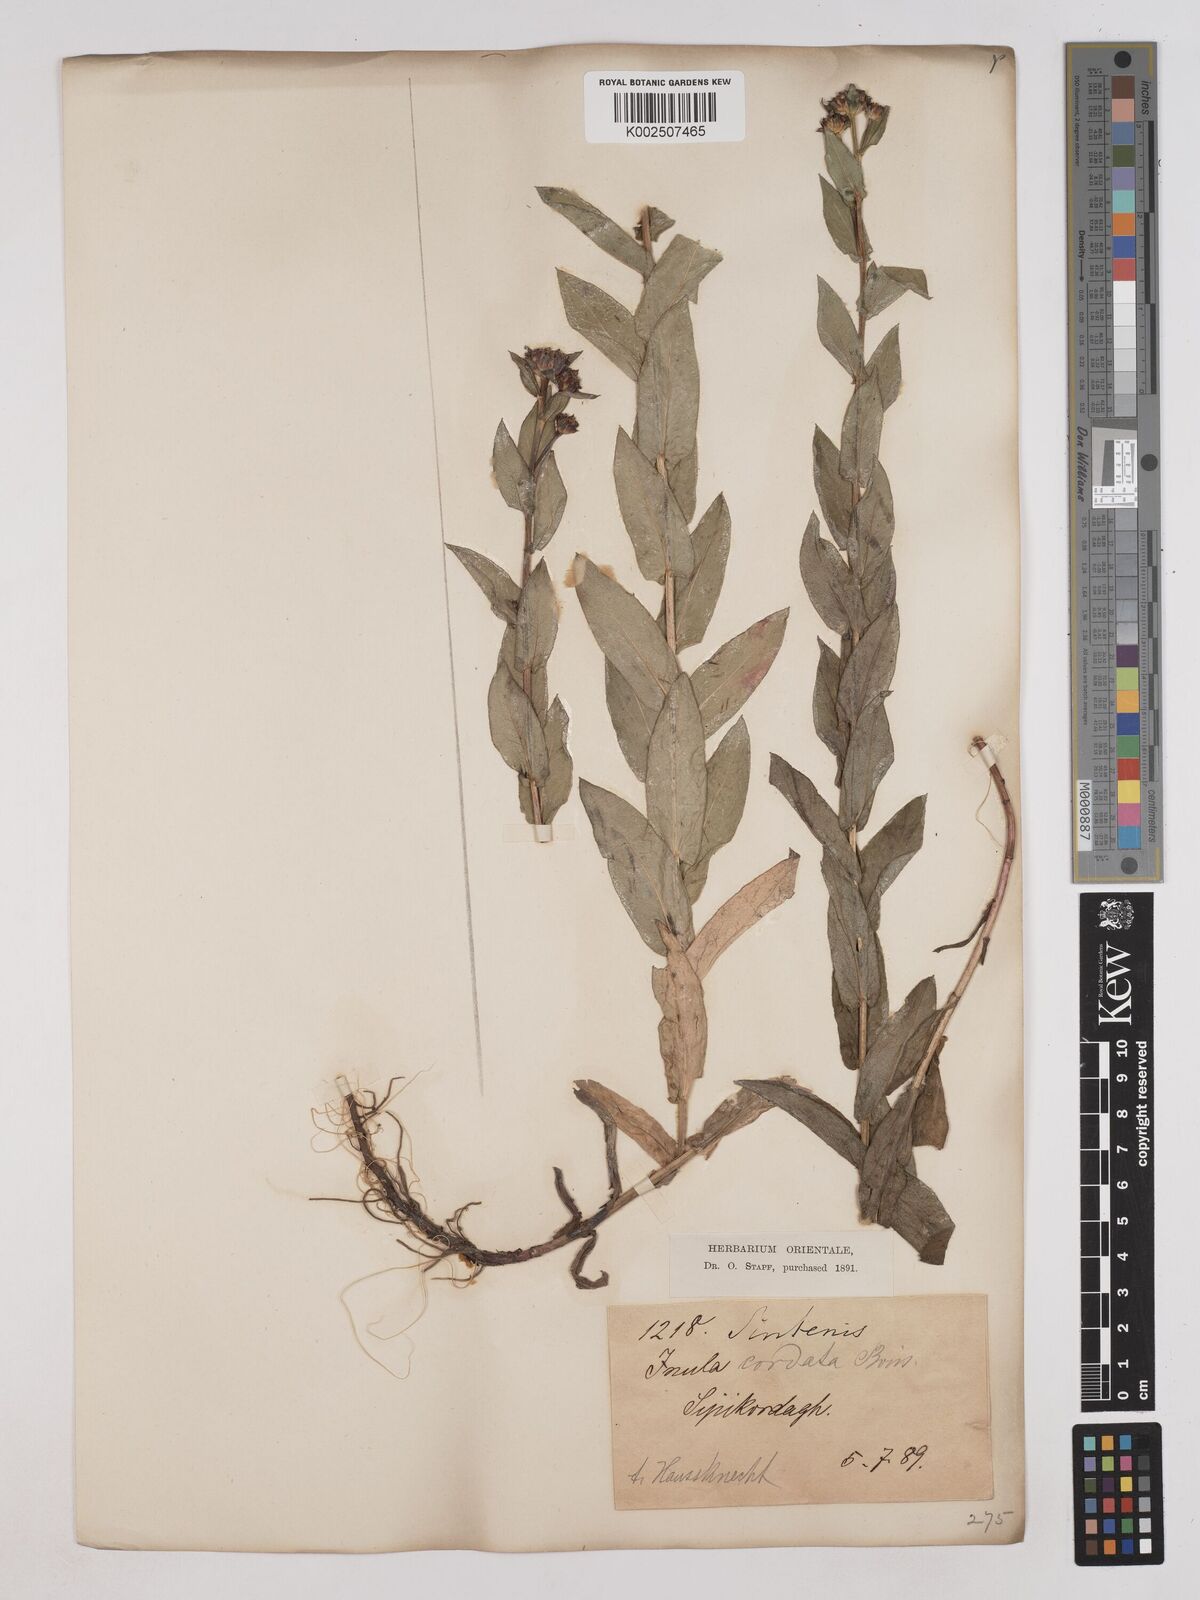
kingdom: Plantae
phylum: Tracheophyta
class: Magnoliopsida
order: Asterales
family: Asteraceae
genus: Pentanema
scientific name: Pentanema salicinum
